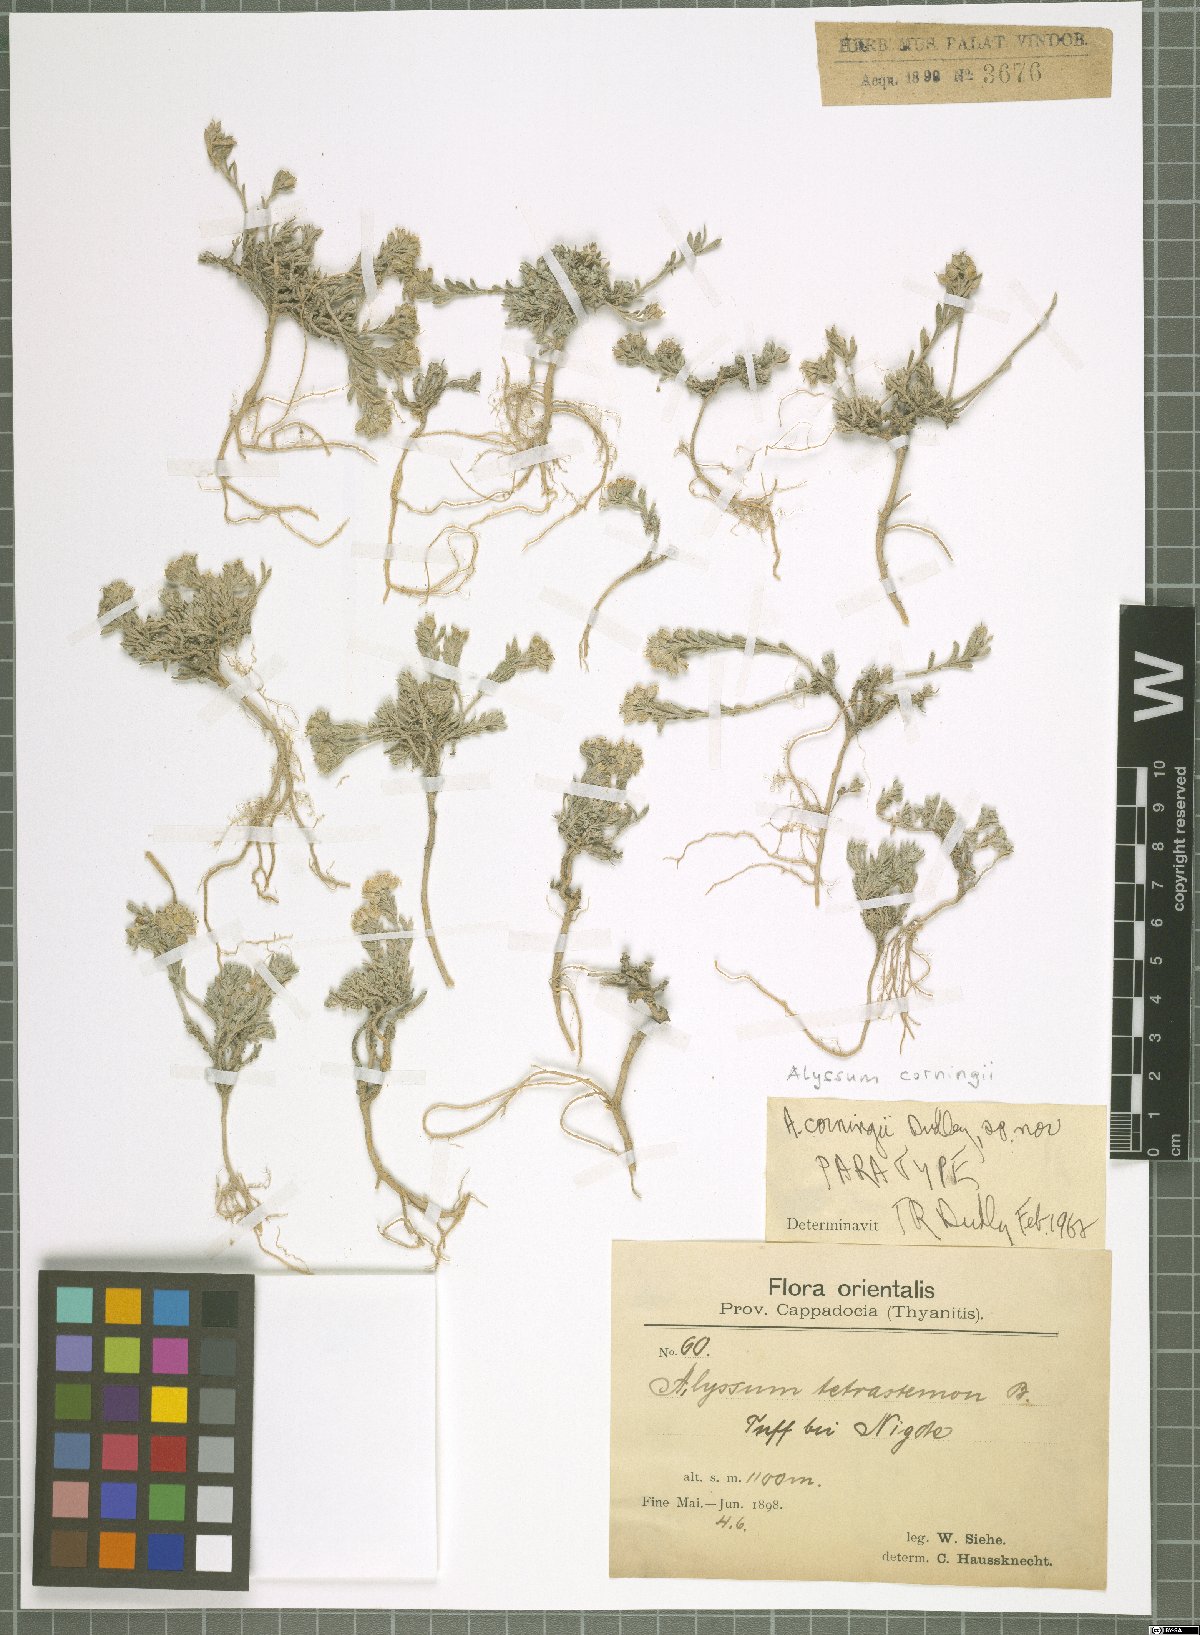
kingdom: Plantae
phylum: Tracheophyta
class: Magnoliopsida
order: Brassicales
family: Brassicaceae
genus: Alyssum
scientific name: Alyssum corningii
